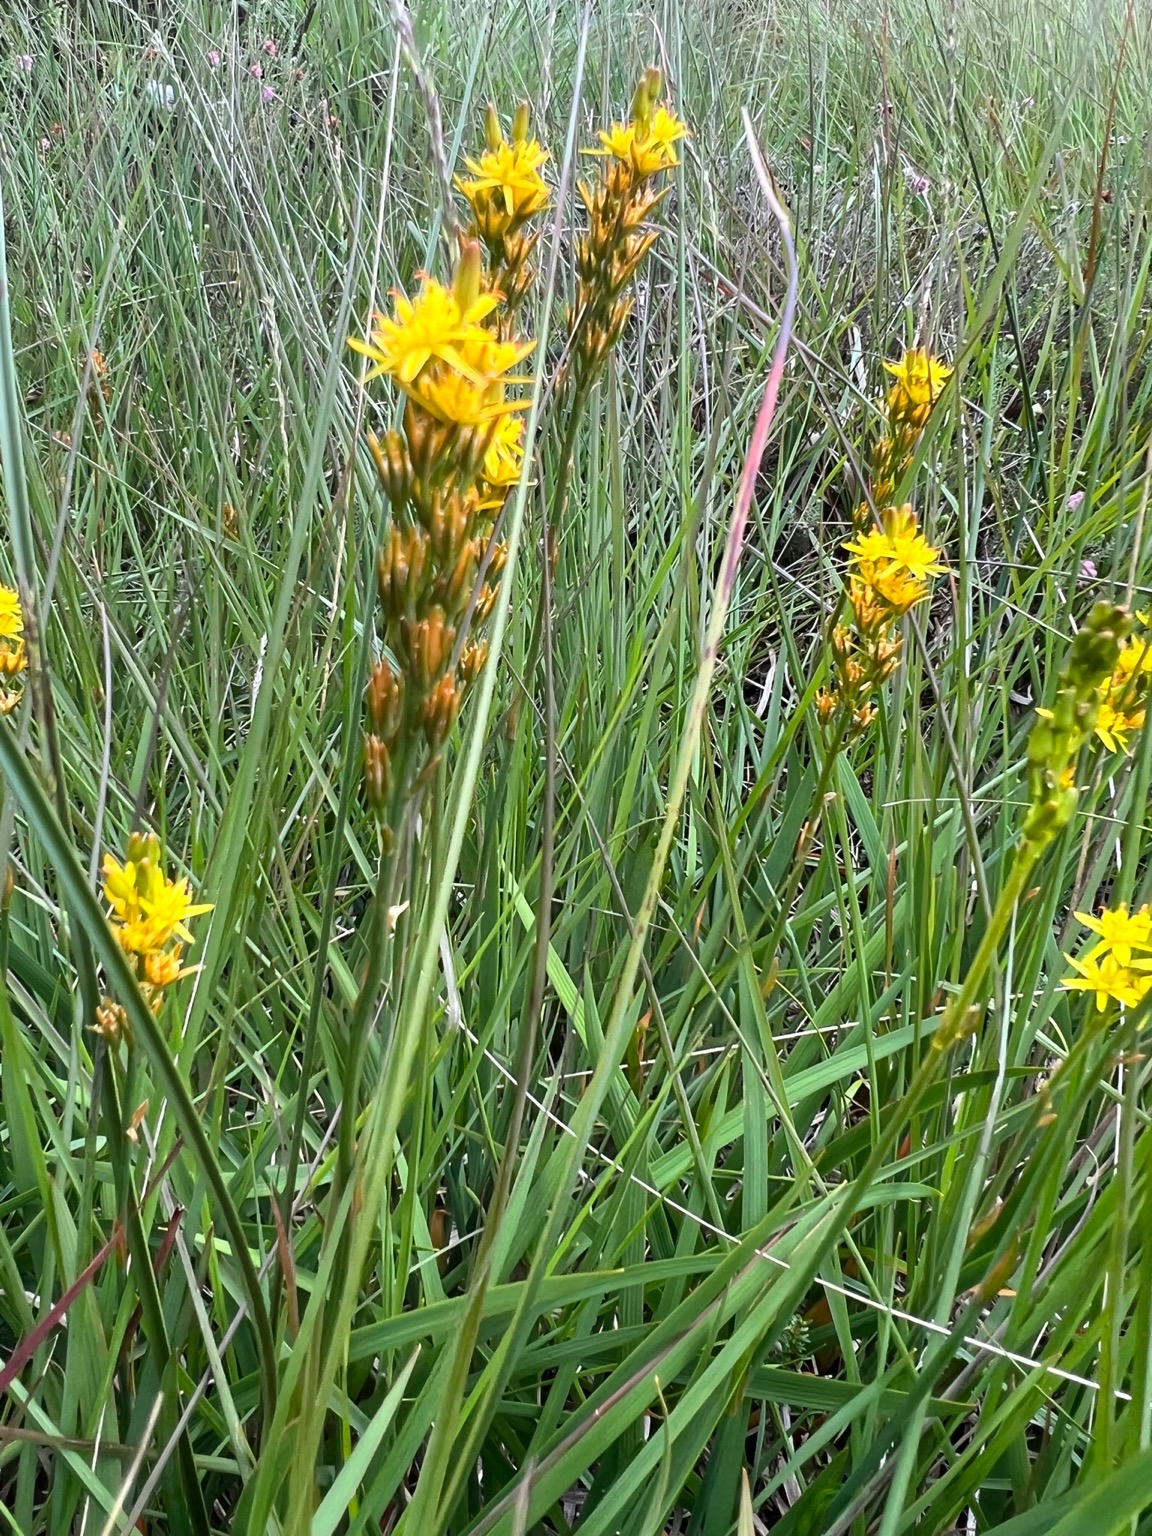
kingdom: Plantae
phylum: Tracheophyta
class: Liliopsida
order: Dioscoreales
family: Nartheciaceae
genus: Narthecium
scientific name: Narthecium ossifragum
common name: Benbræk
